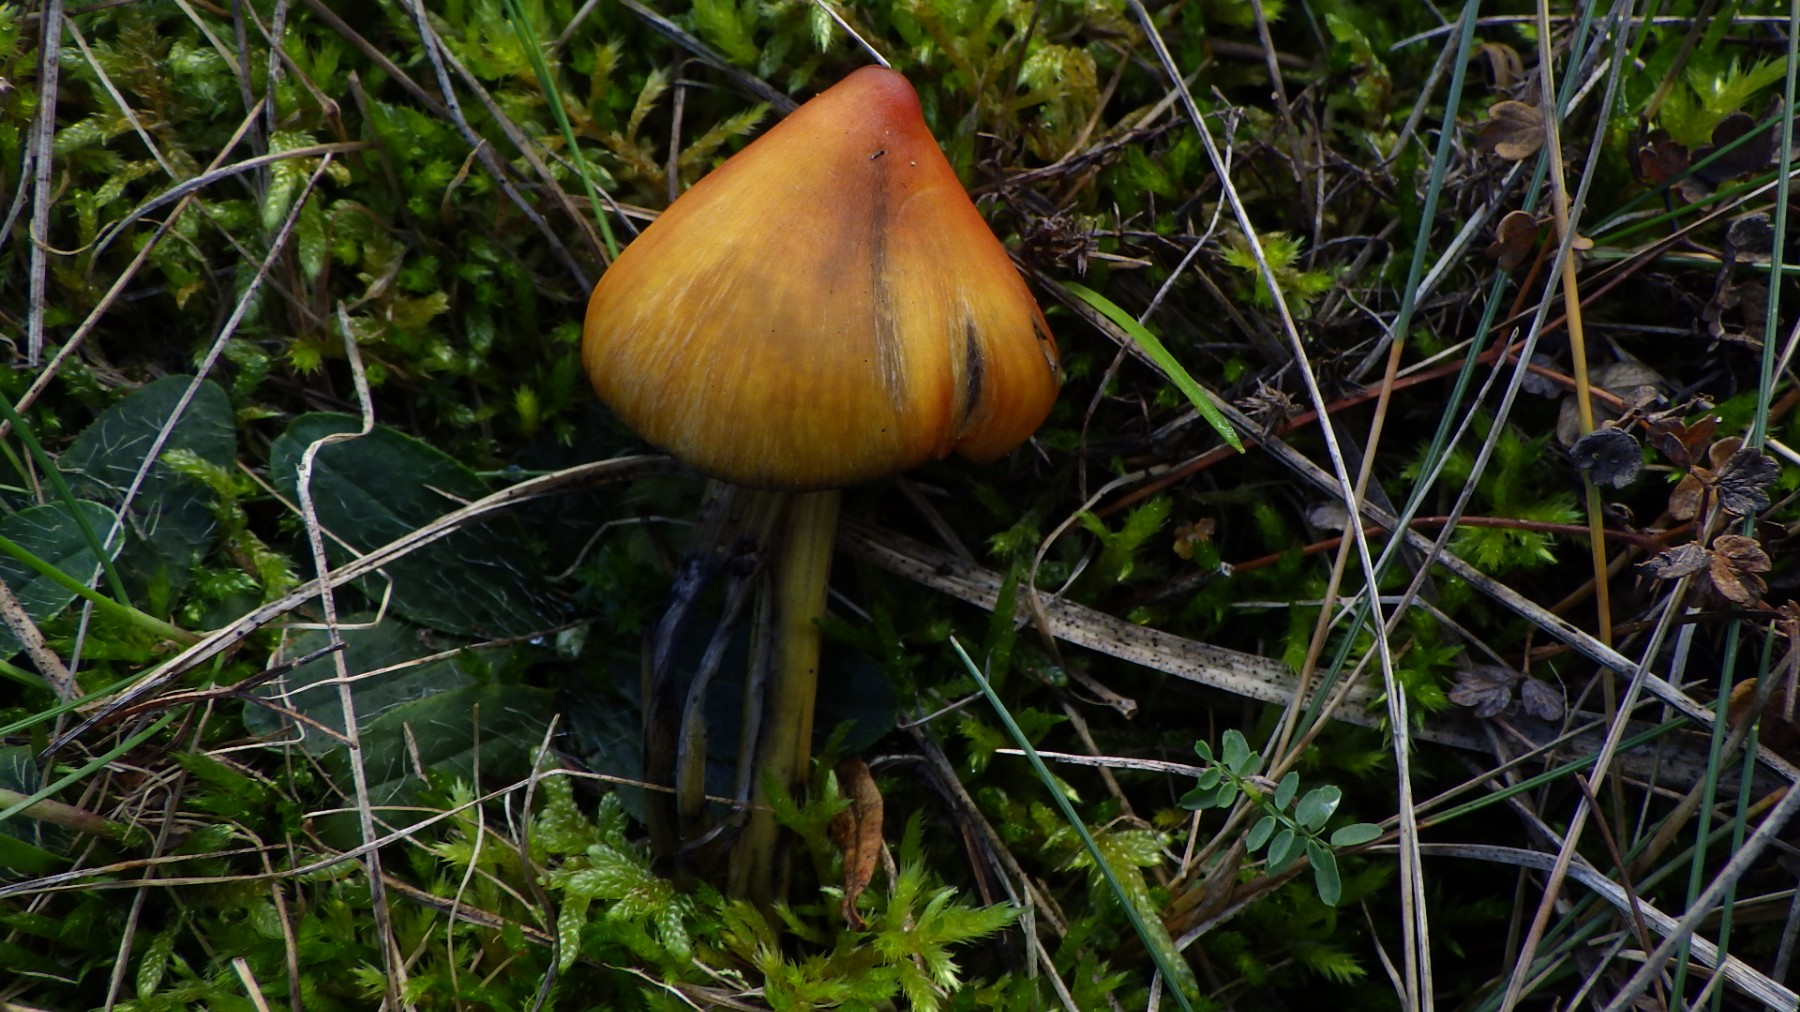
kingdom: Fungi
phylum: Basidiomycota
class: Agaricomycetes
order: Agaricales
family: Hygrophoraceae
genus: Hygrocybe
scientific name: Hygrocybe conica
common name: kegle-vokshat
